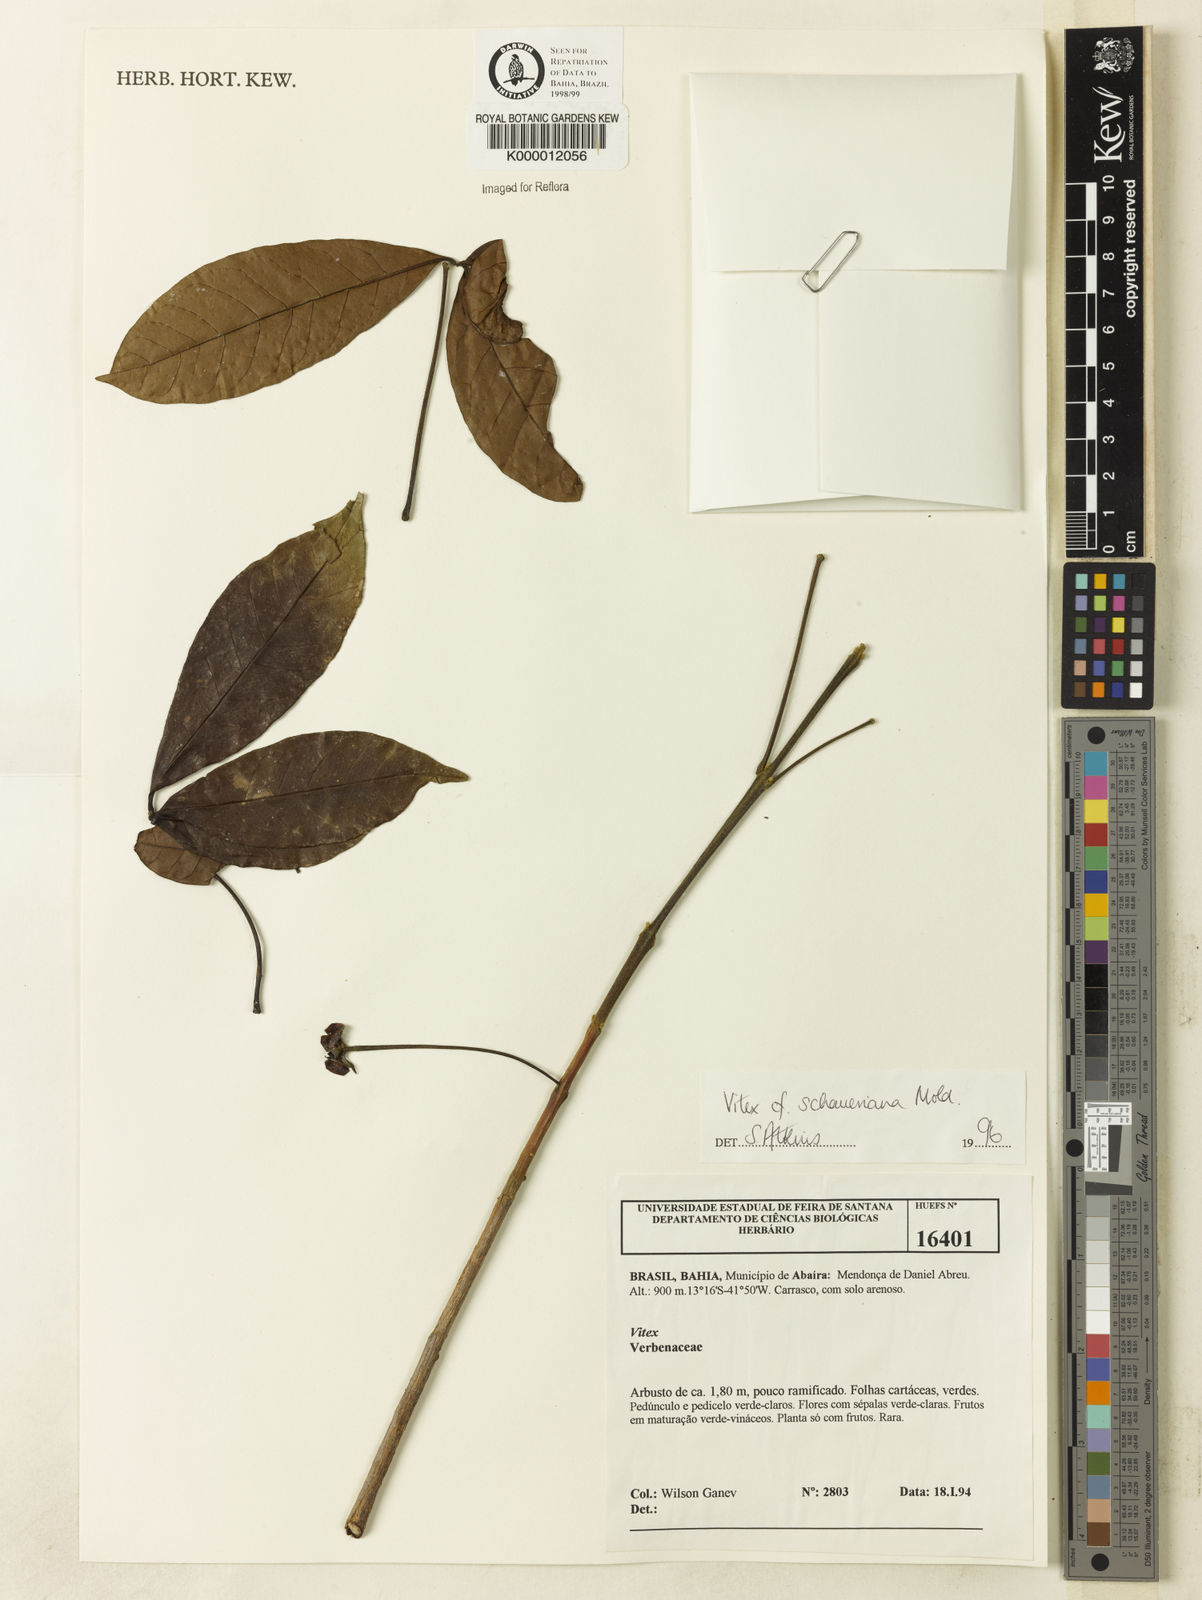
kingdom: Plantae
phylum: Tracheophyta
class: Magnoliopsida
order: Lamiales
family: Lamiaceae
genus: Vitex
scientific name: Vitex schaueriana
